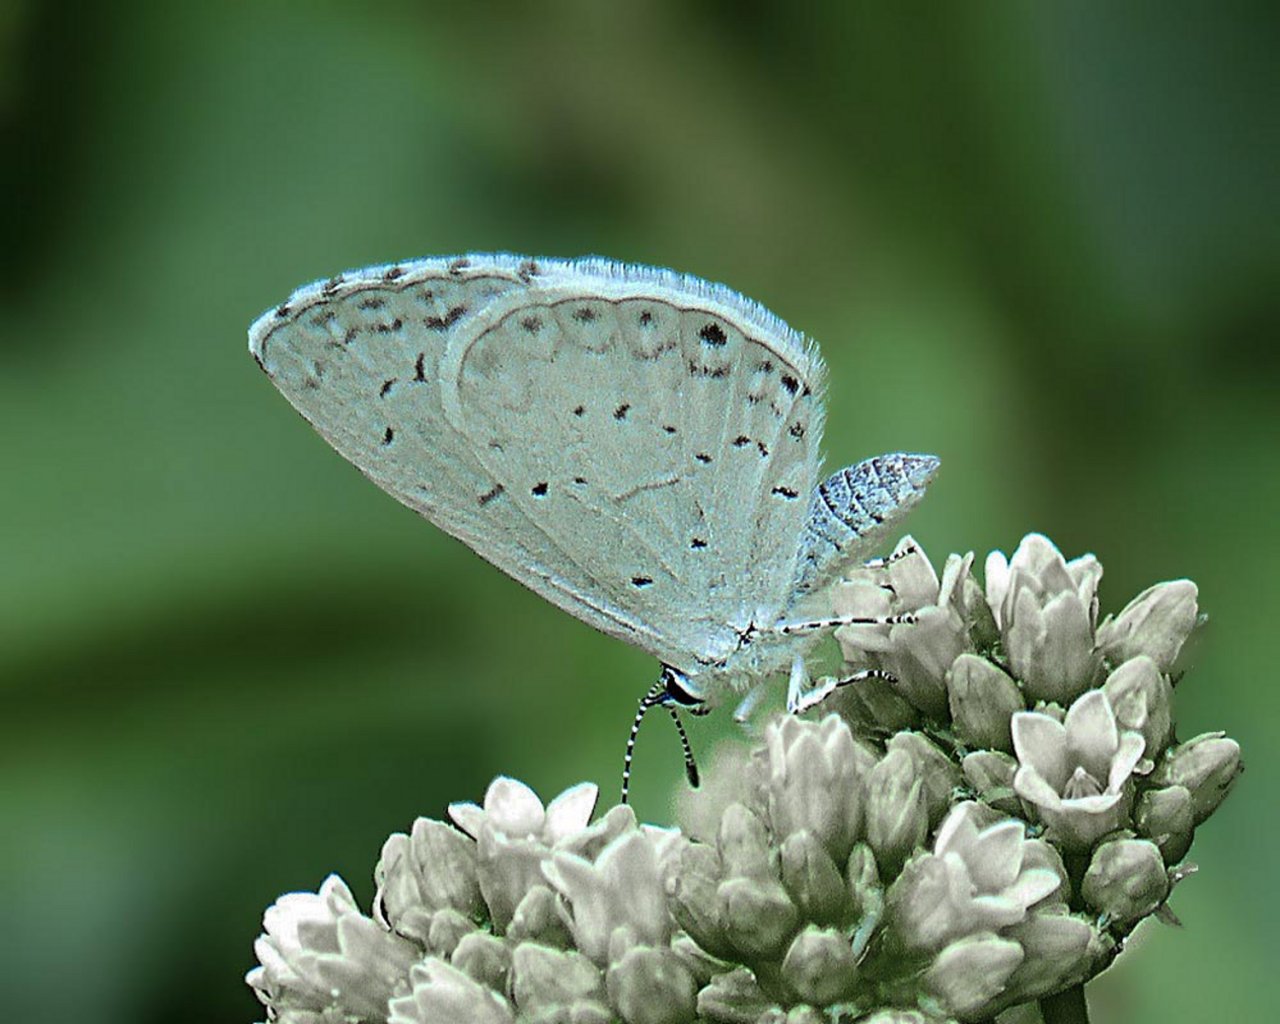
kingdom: Animalia
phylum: Arthropoda
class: Insecta
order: Lepidoptera
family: Lycaenidae
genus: Cyaniris
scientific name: Cyaniris neglecta
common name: Summer Azure
